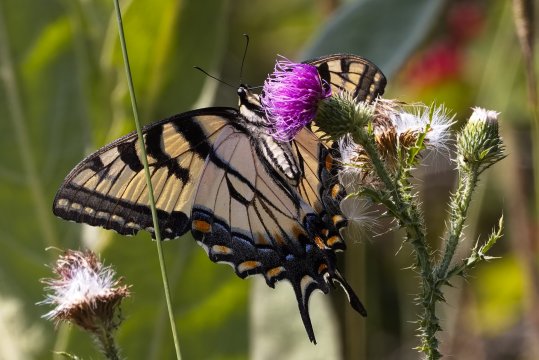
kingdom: Animalia
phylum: Arthropoda
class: Insecta
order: Lepidoptera
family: Papilionidae
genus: Pterourus
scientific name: Pterourus glaucus
